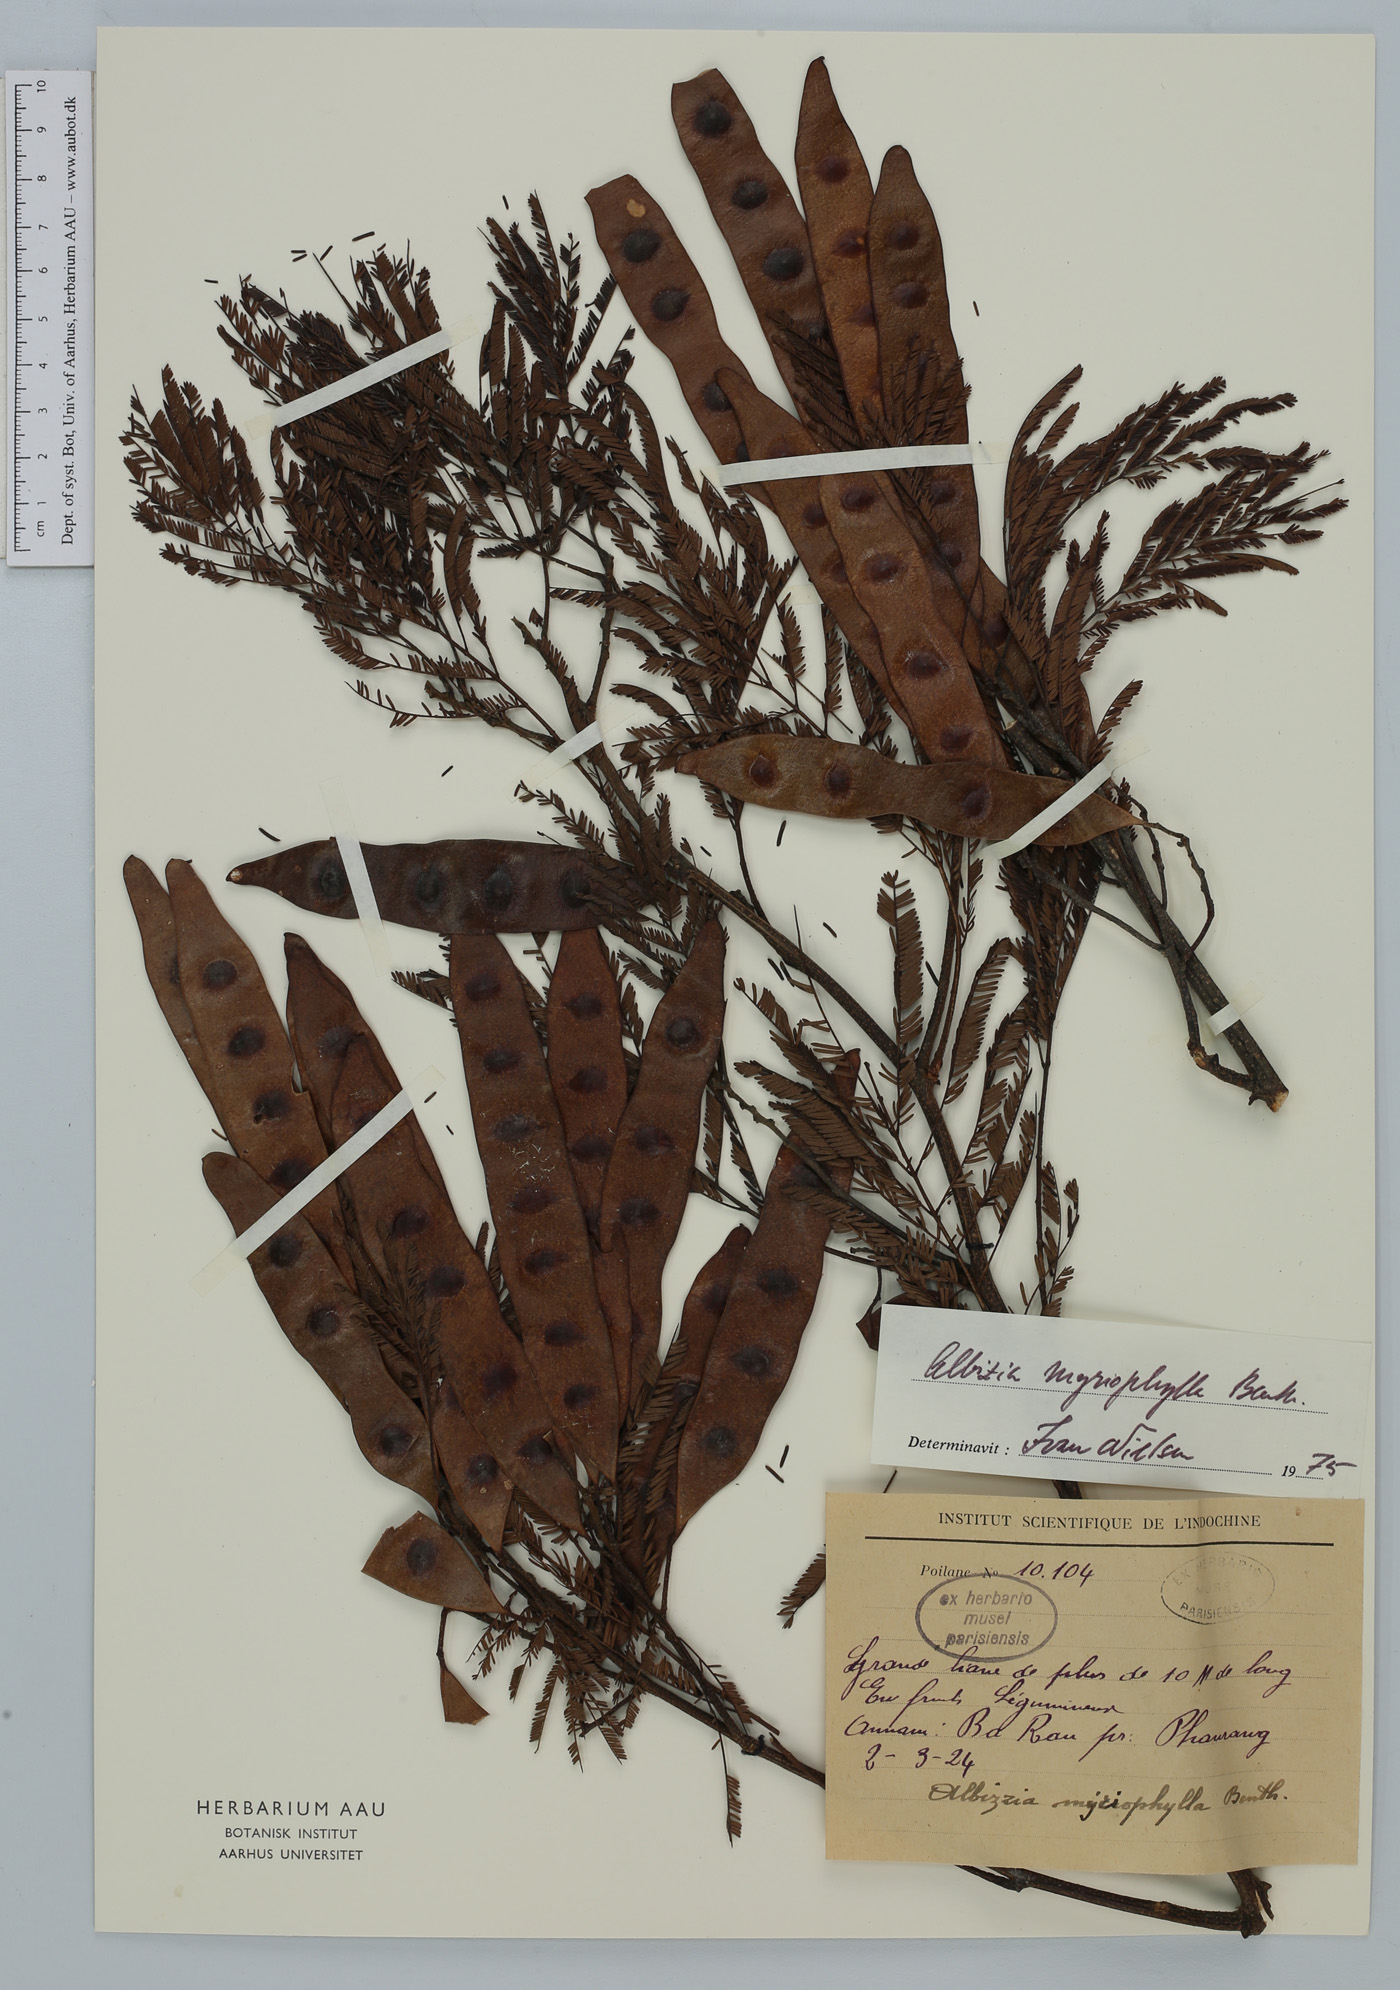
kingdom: Plantae
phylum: Tracheophyta
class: Magnoliopsida
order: Fabales
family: Fabaceae
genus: Albizia
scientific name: Albizia myriophylla
